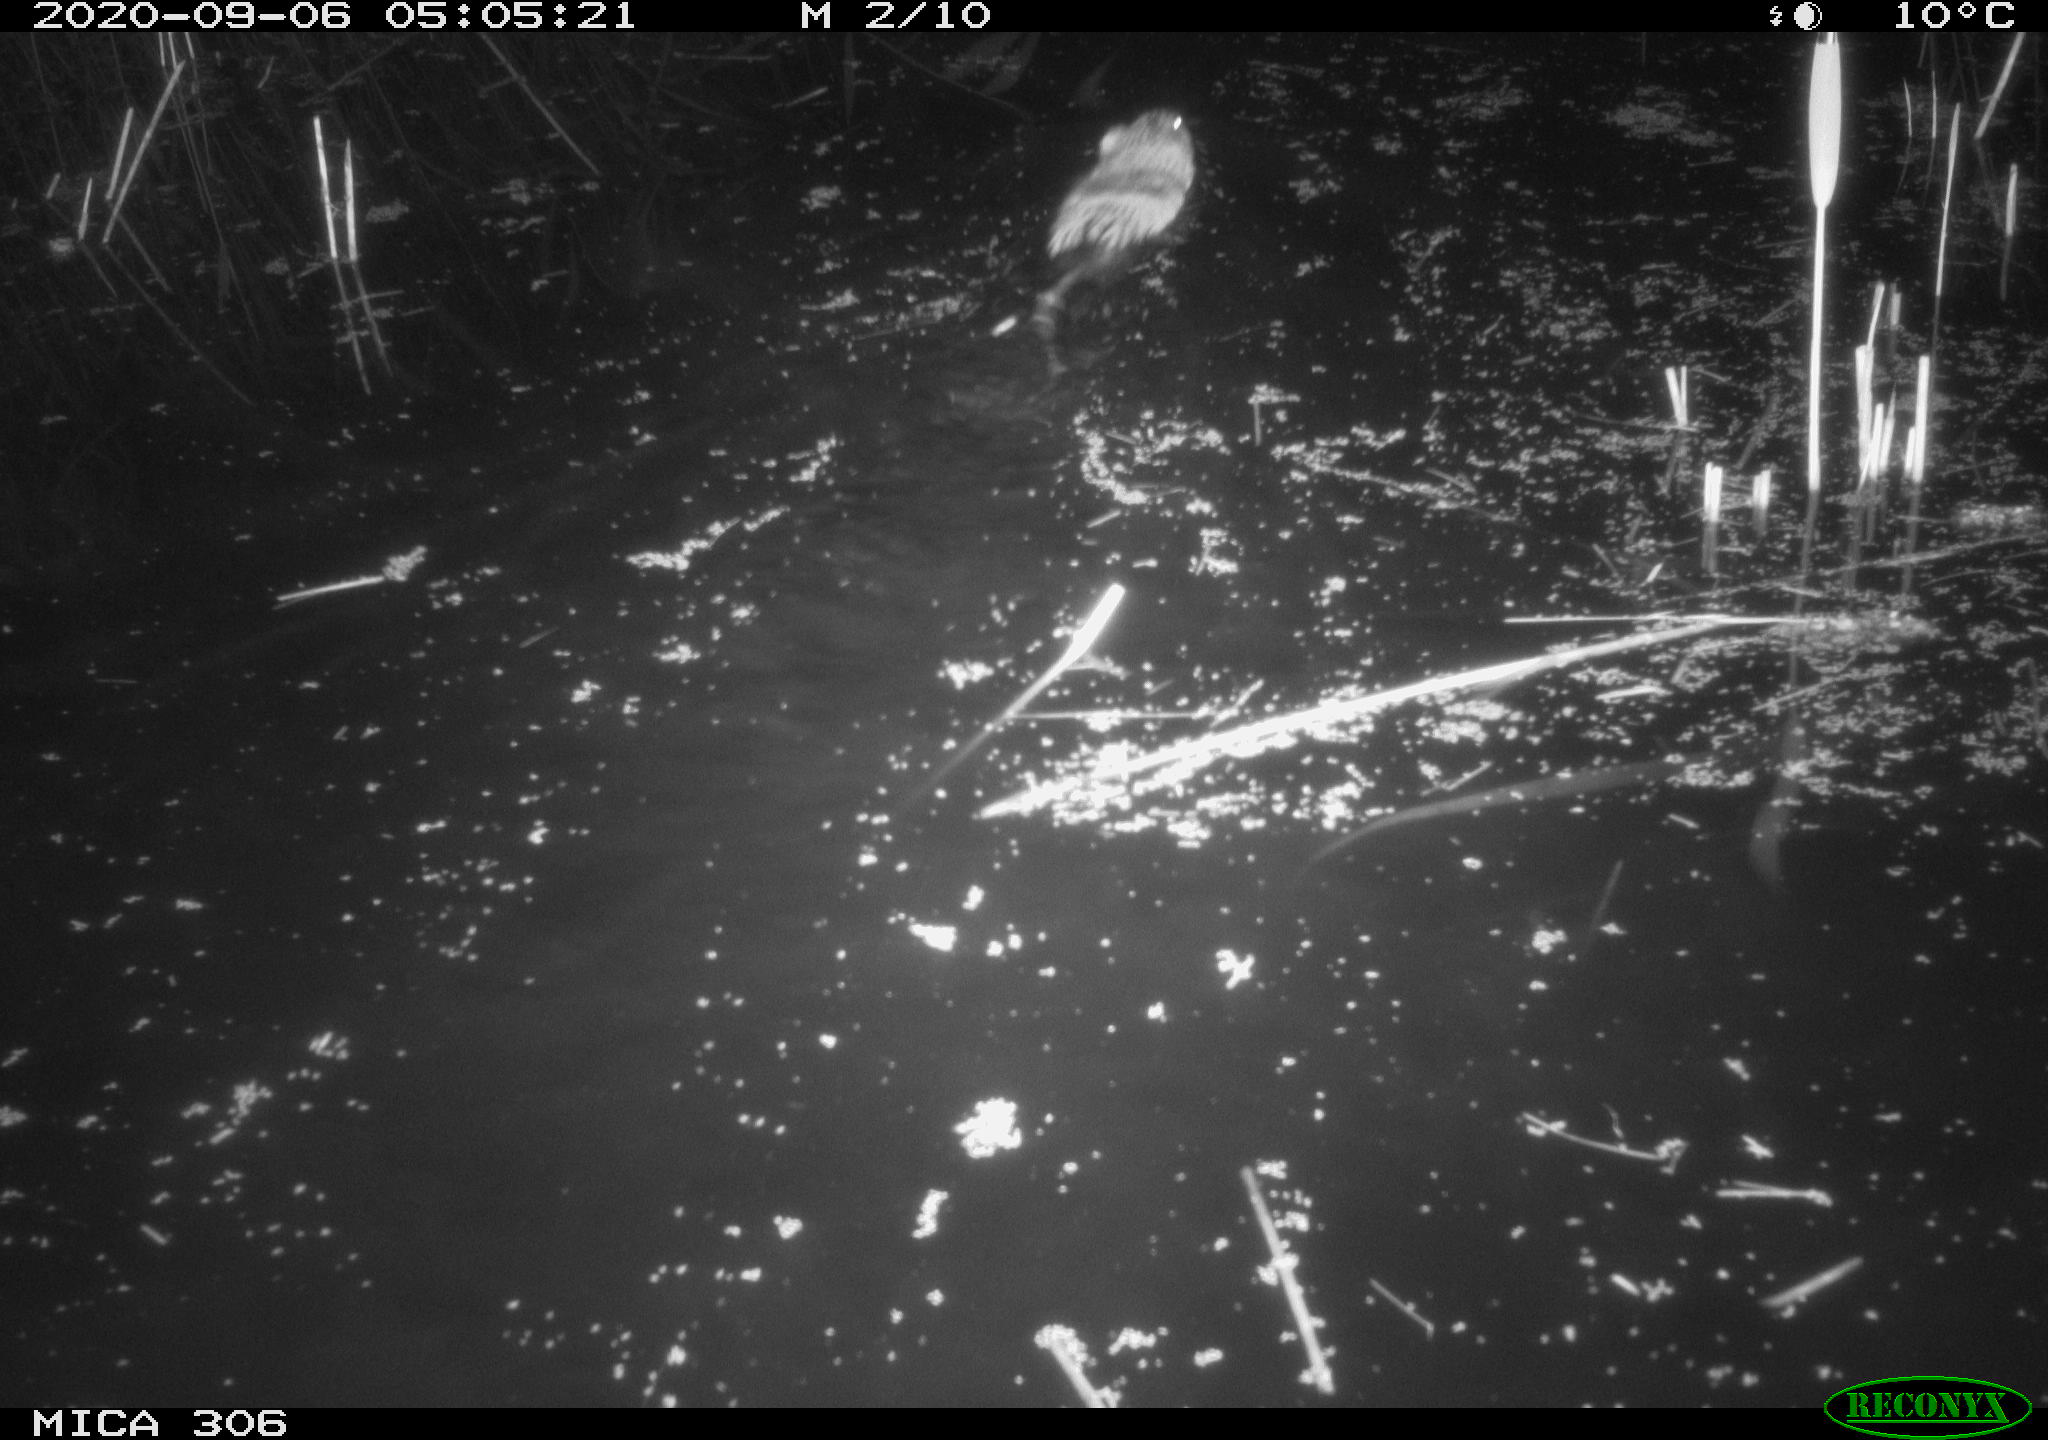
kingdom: Animalia
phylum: Chordata
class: Mammalia
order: Rodentia
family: Cricetidae
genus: Ondatra
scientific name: Ondatra zibethicus
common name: Muskrat
